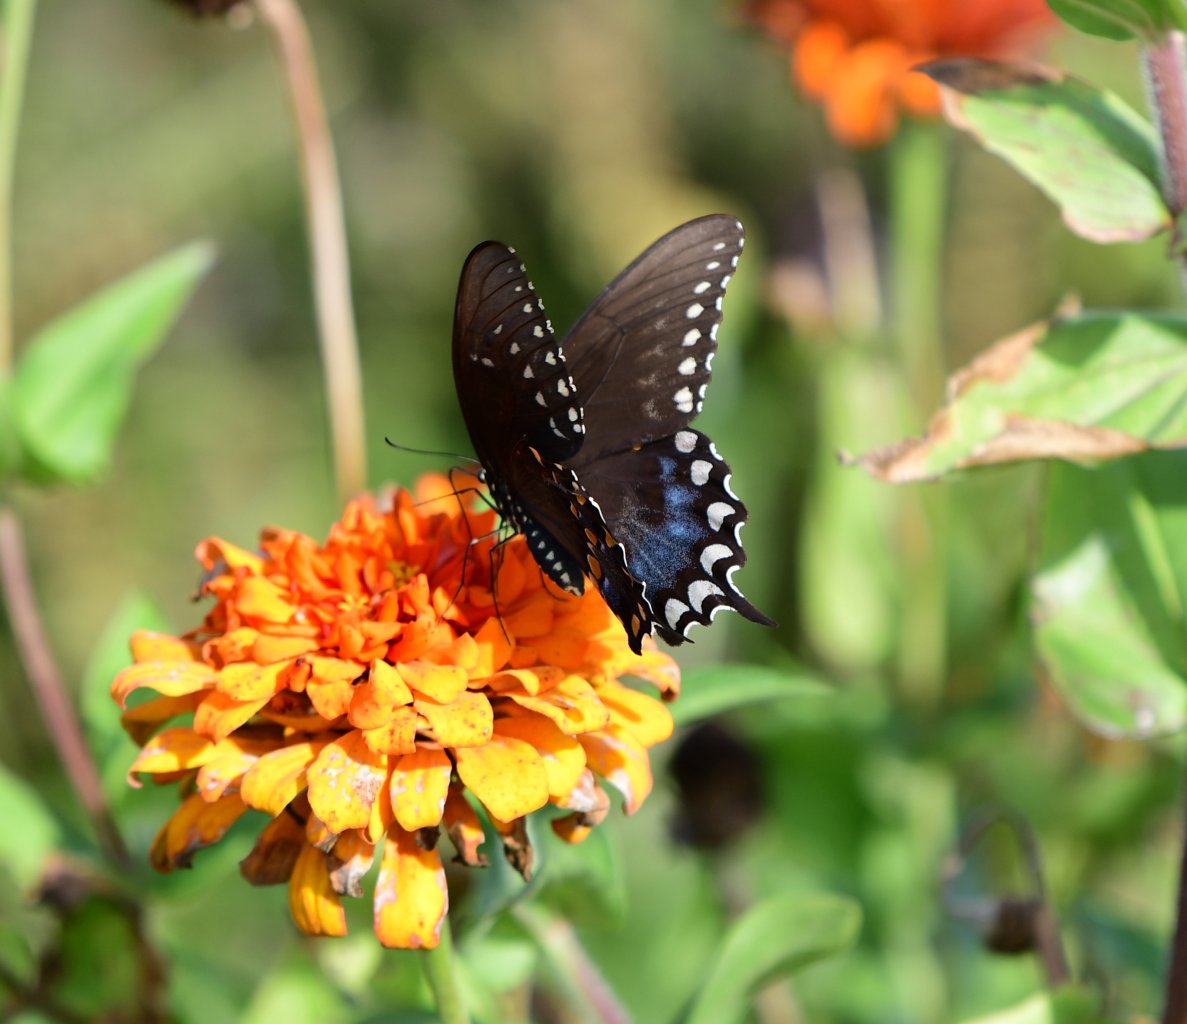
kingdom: Animalia
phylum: Arthropoda
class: Insecta
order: Lepidoptera
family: Papilionidae
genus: Pterourus
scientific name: Pterourus troilus
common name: Spicebush Swallowtail
